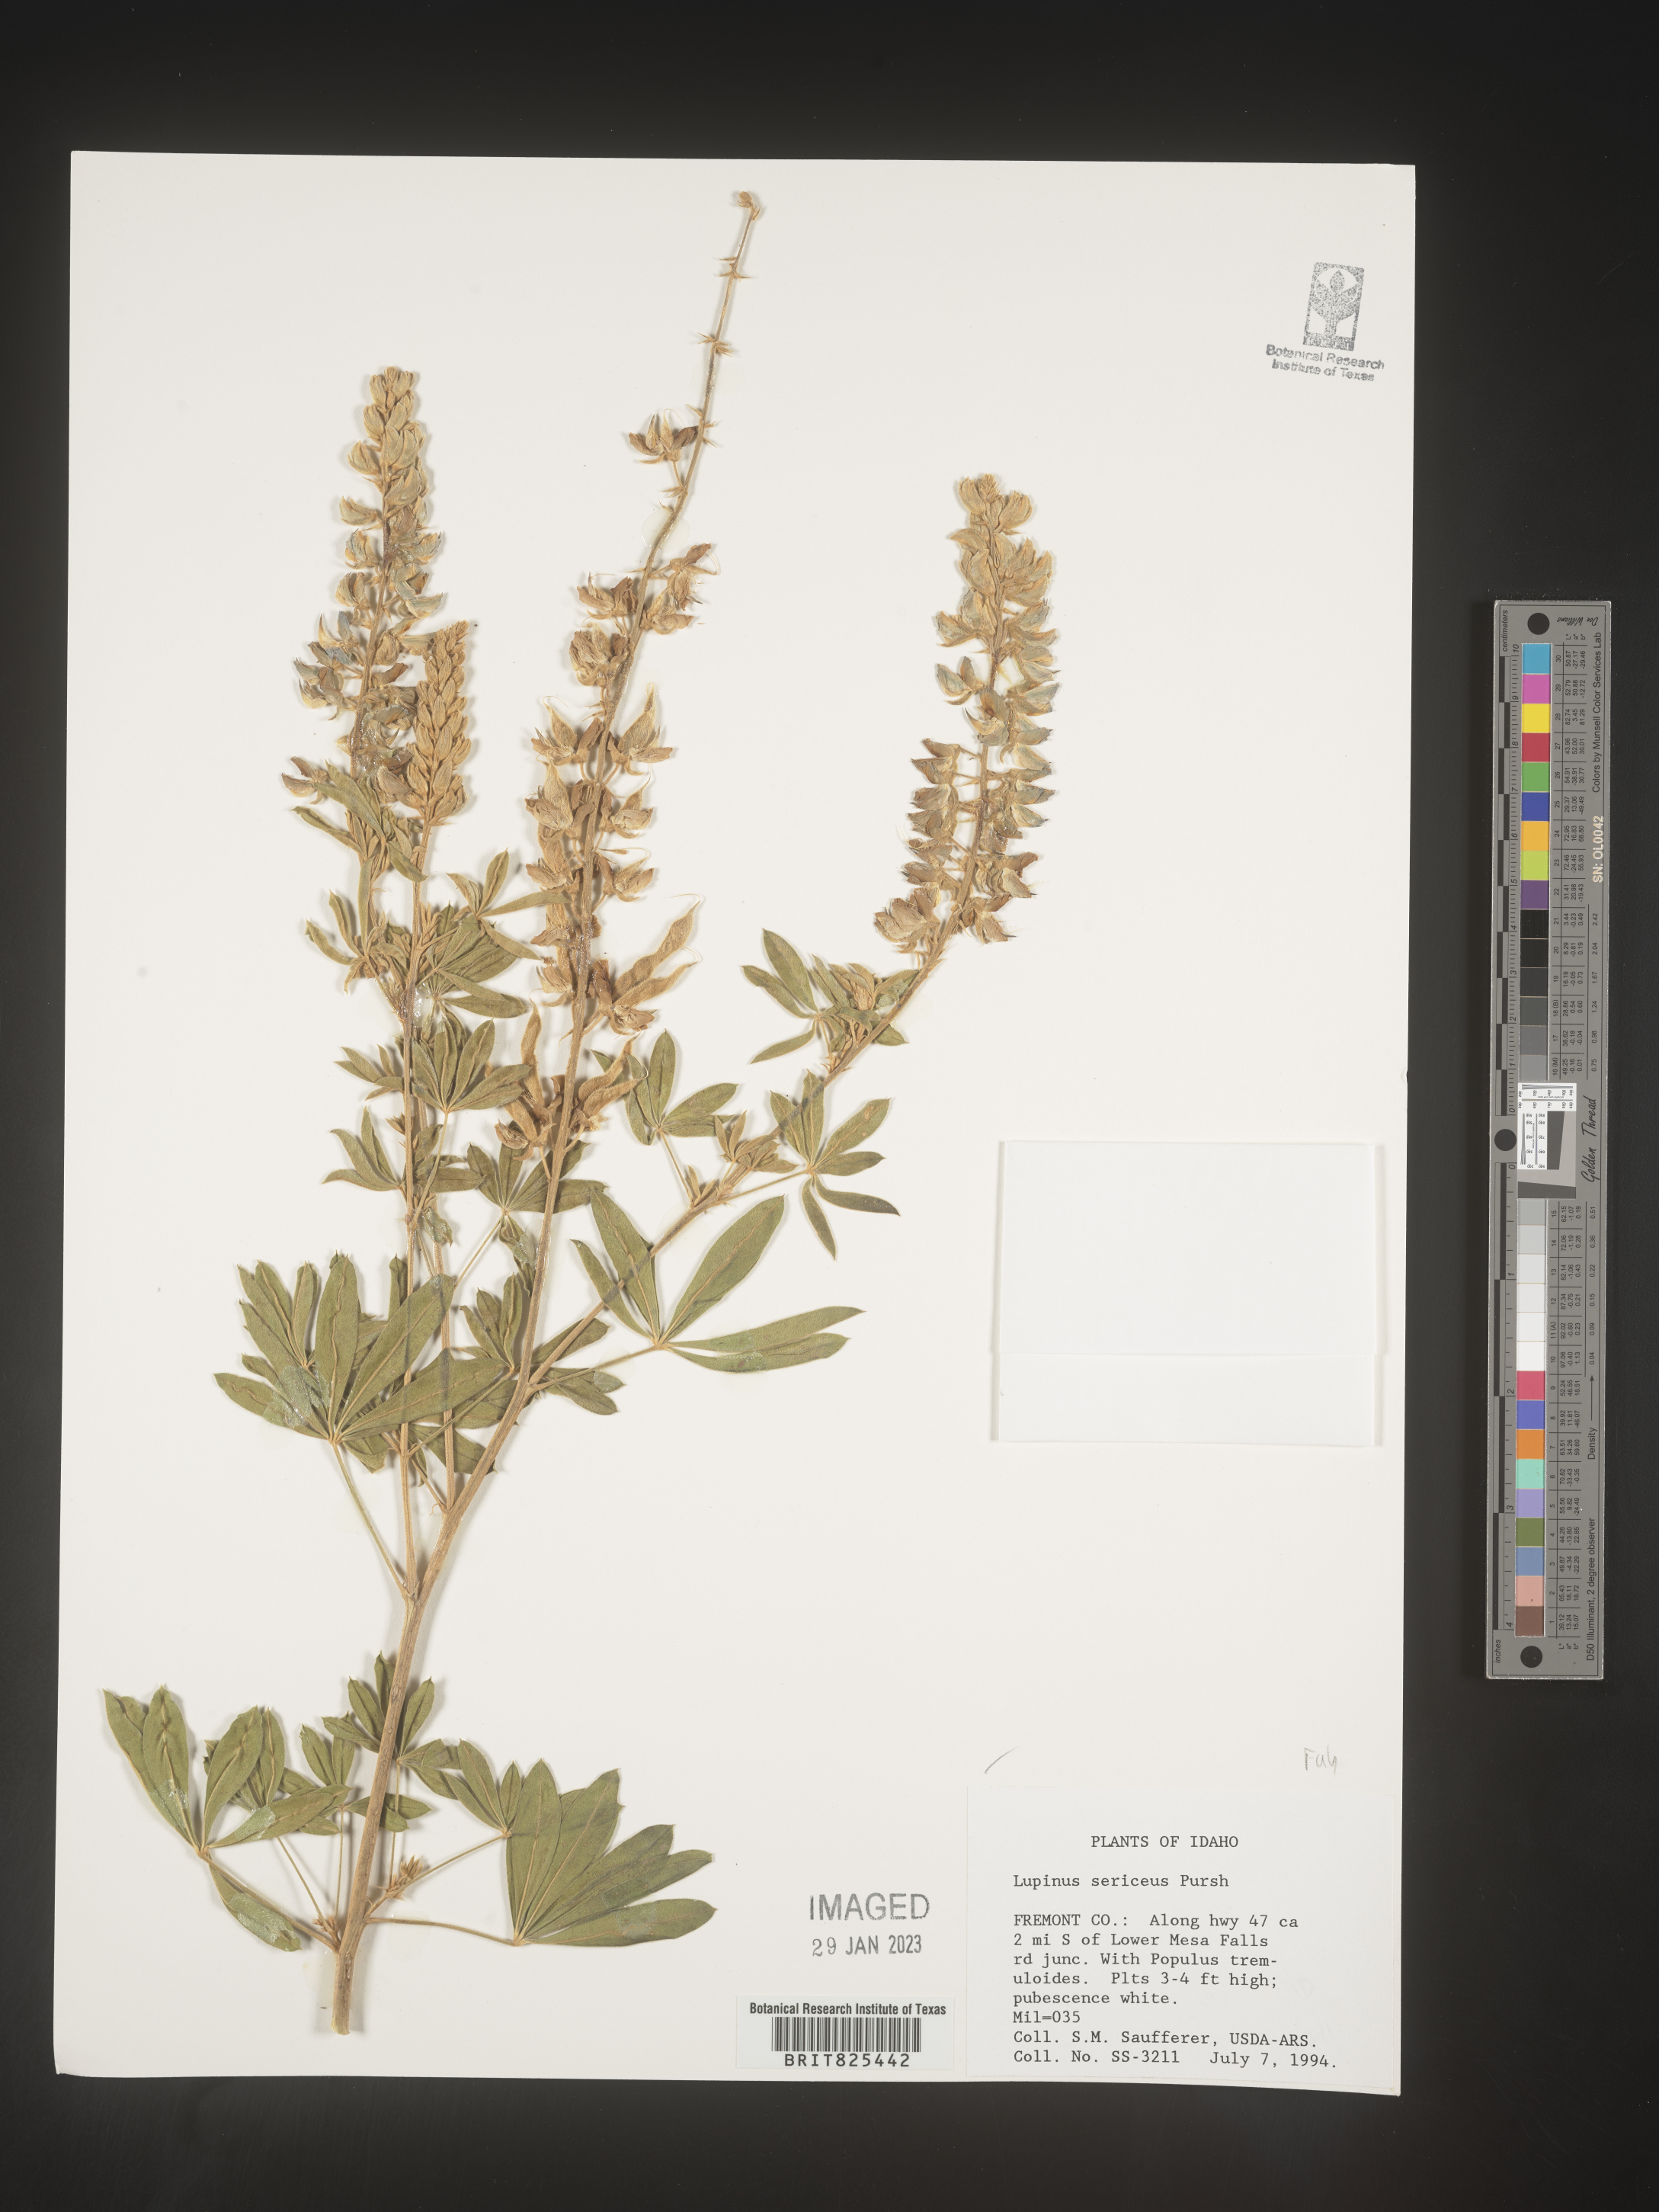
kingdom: Plantae
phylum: Tracheophyta
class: Magnoliopsida
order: Fabales
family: Fabaceae
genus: Lupinus
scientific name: Lupinus sericeus
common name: Silky lupine
